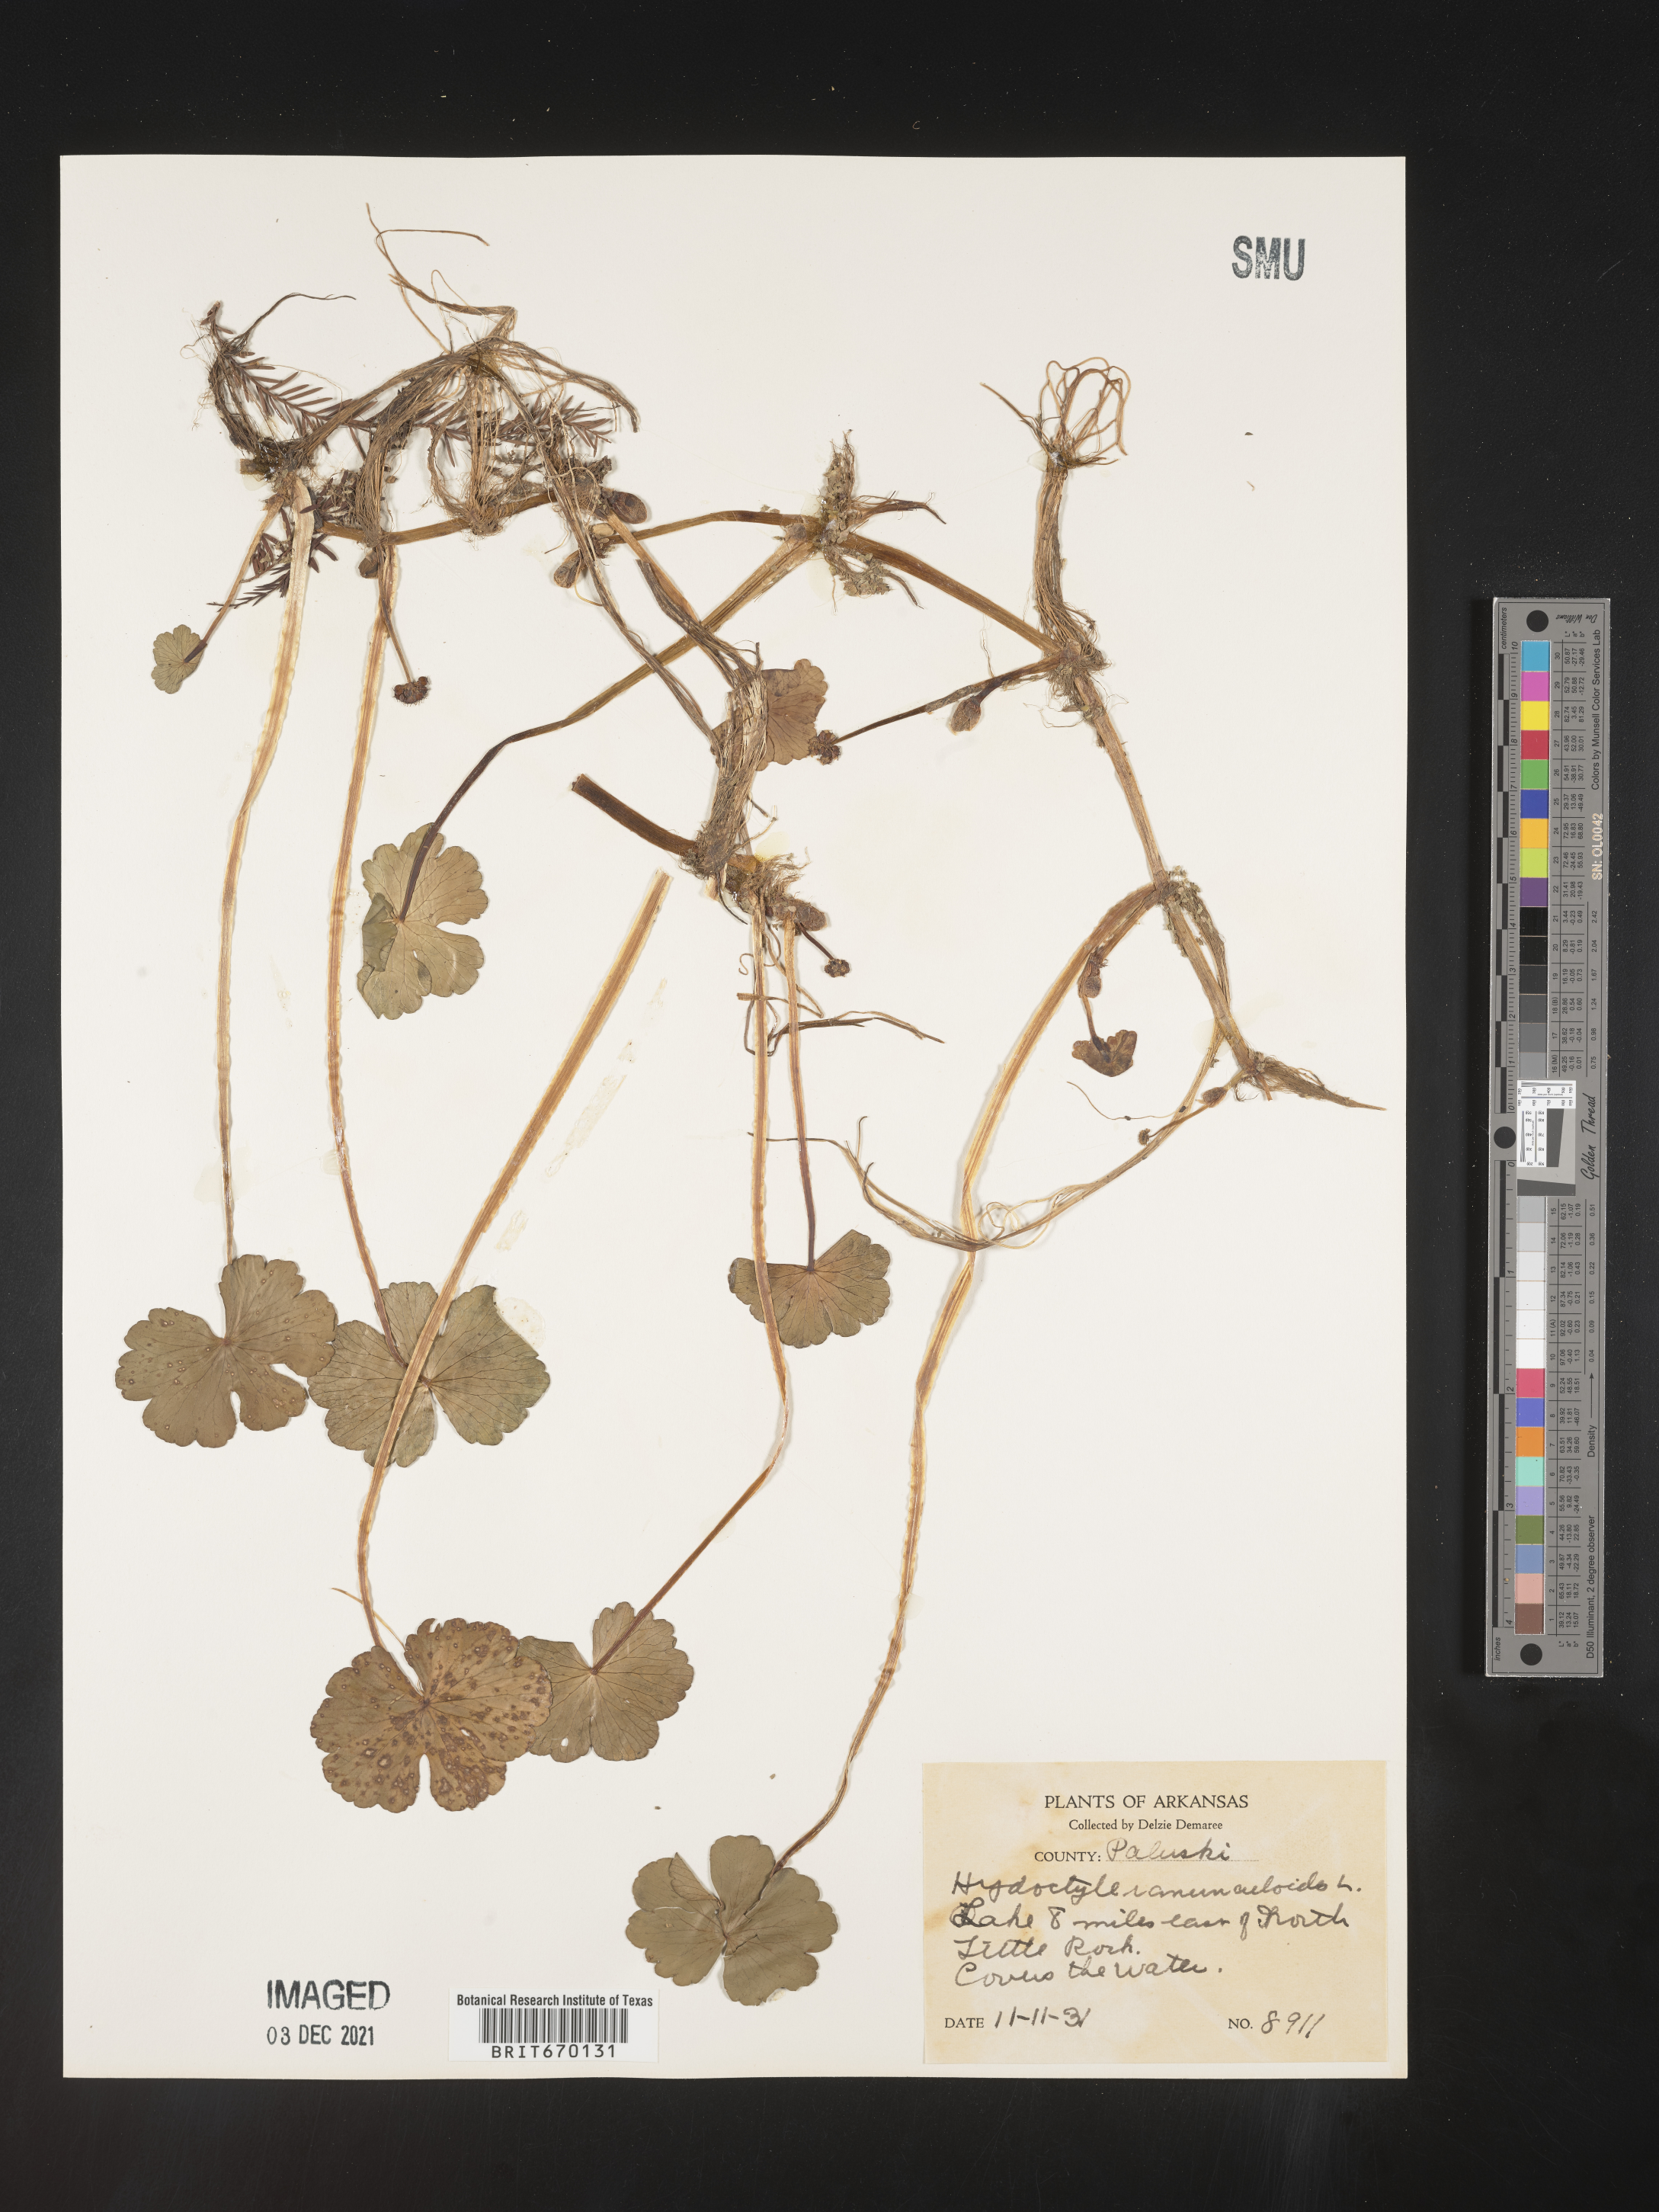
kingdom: Plantae
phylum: Tracheophyta
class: Magnoliopsida
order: Apiales
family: Araliaceae
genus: Hydrocotyle
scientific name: Hydrocotyle ranunculoides
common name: Floating pennywort
